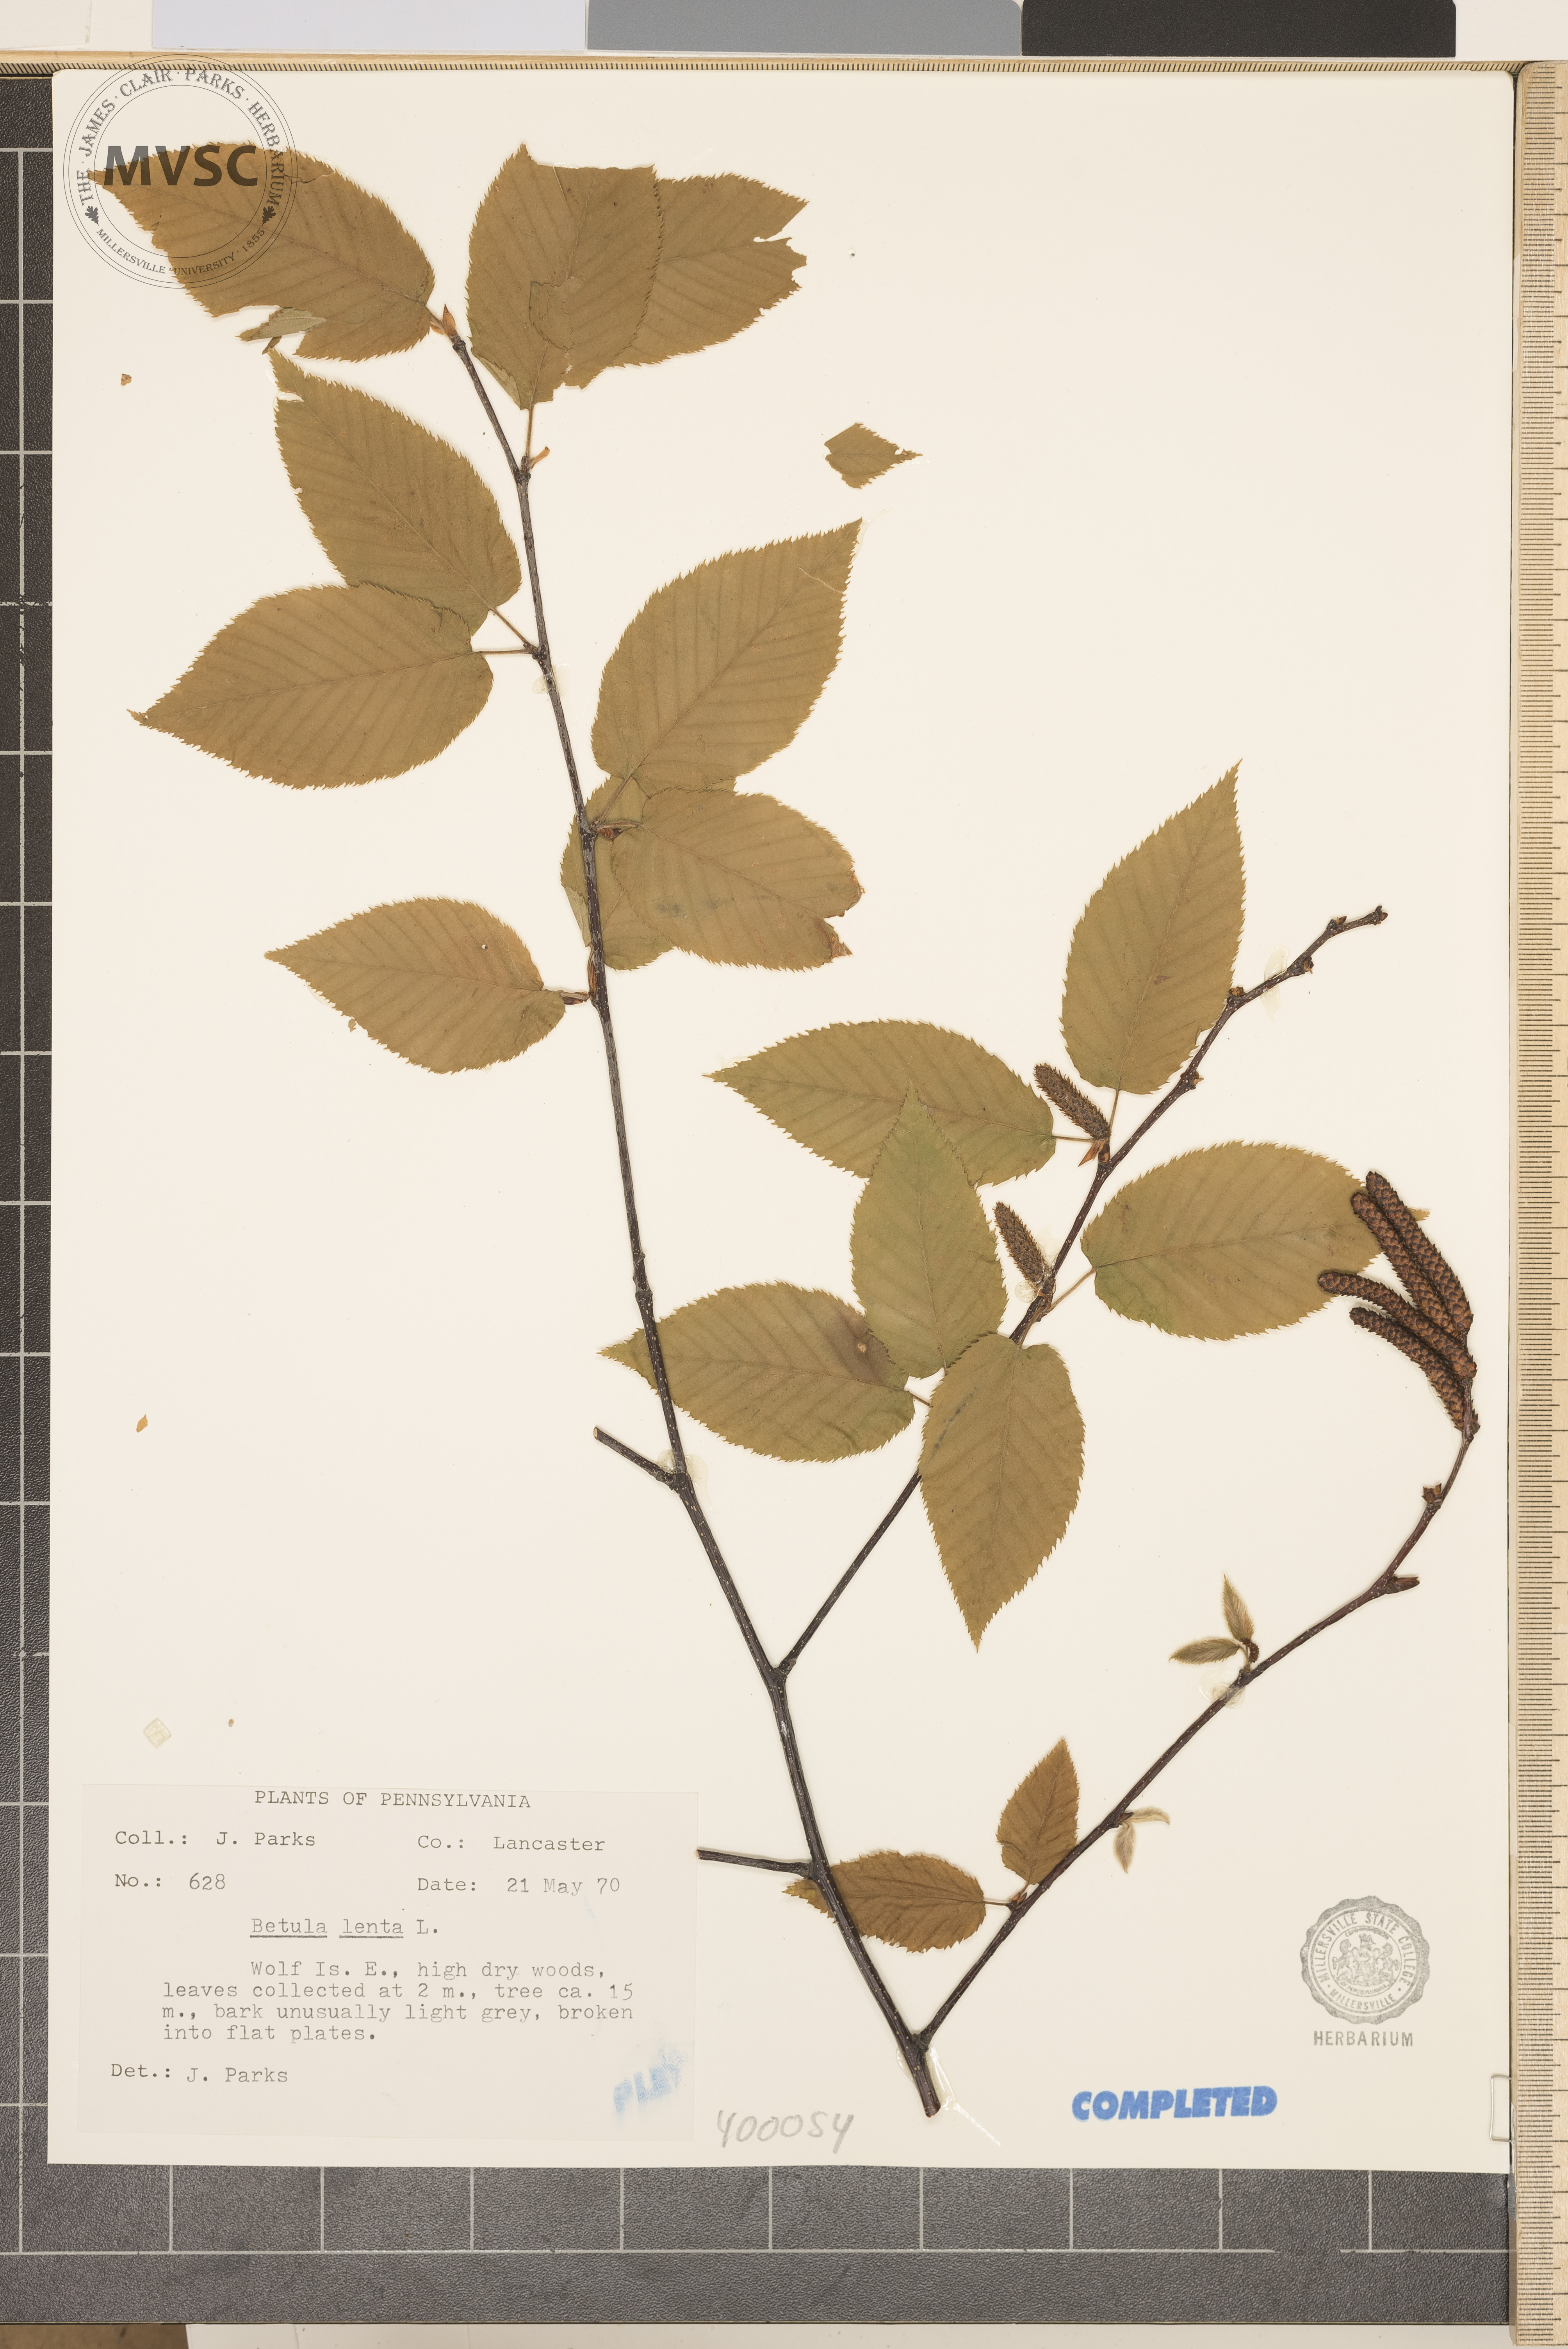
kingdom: Plantae
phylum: Tracheophyta
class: Magnoliopsida
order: Fagales
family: Betulaceae
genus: Betula
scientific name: Betula lenta
